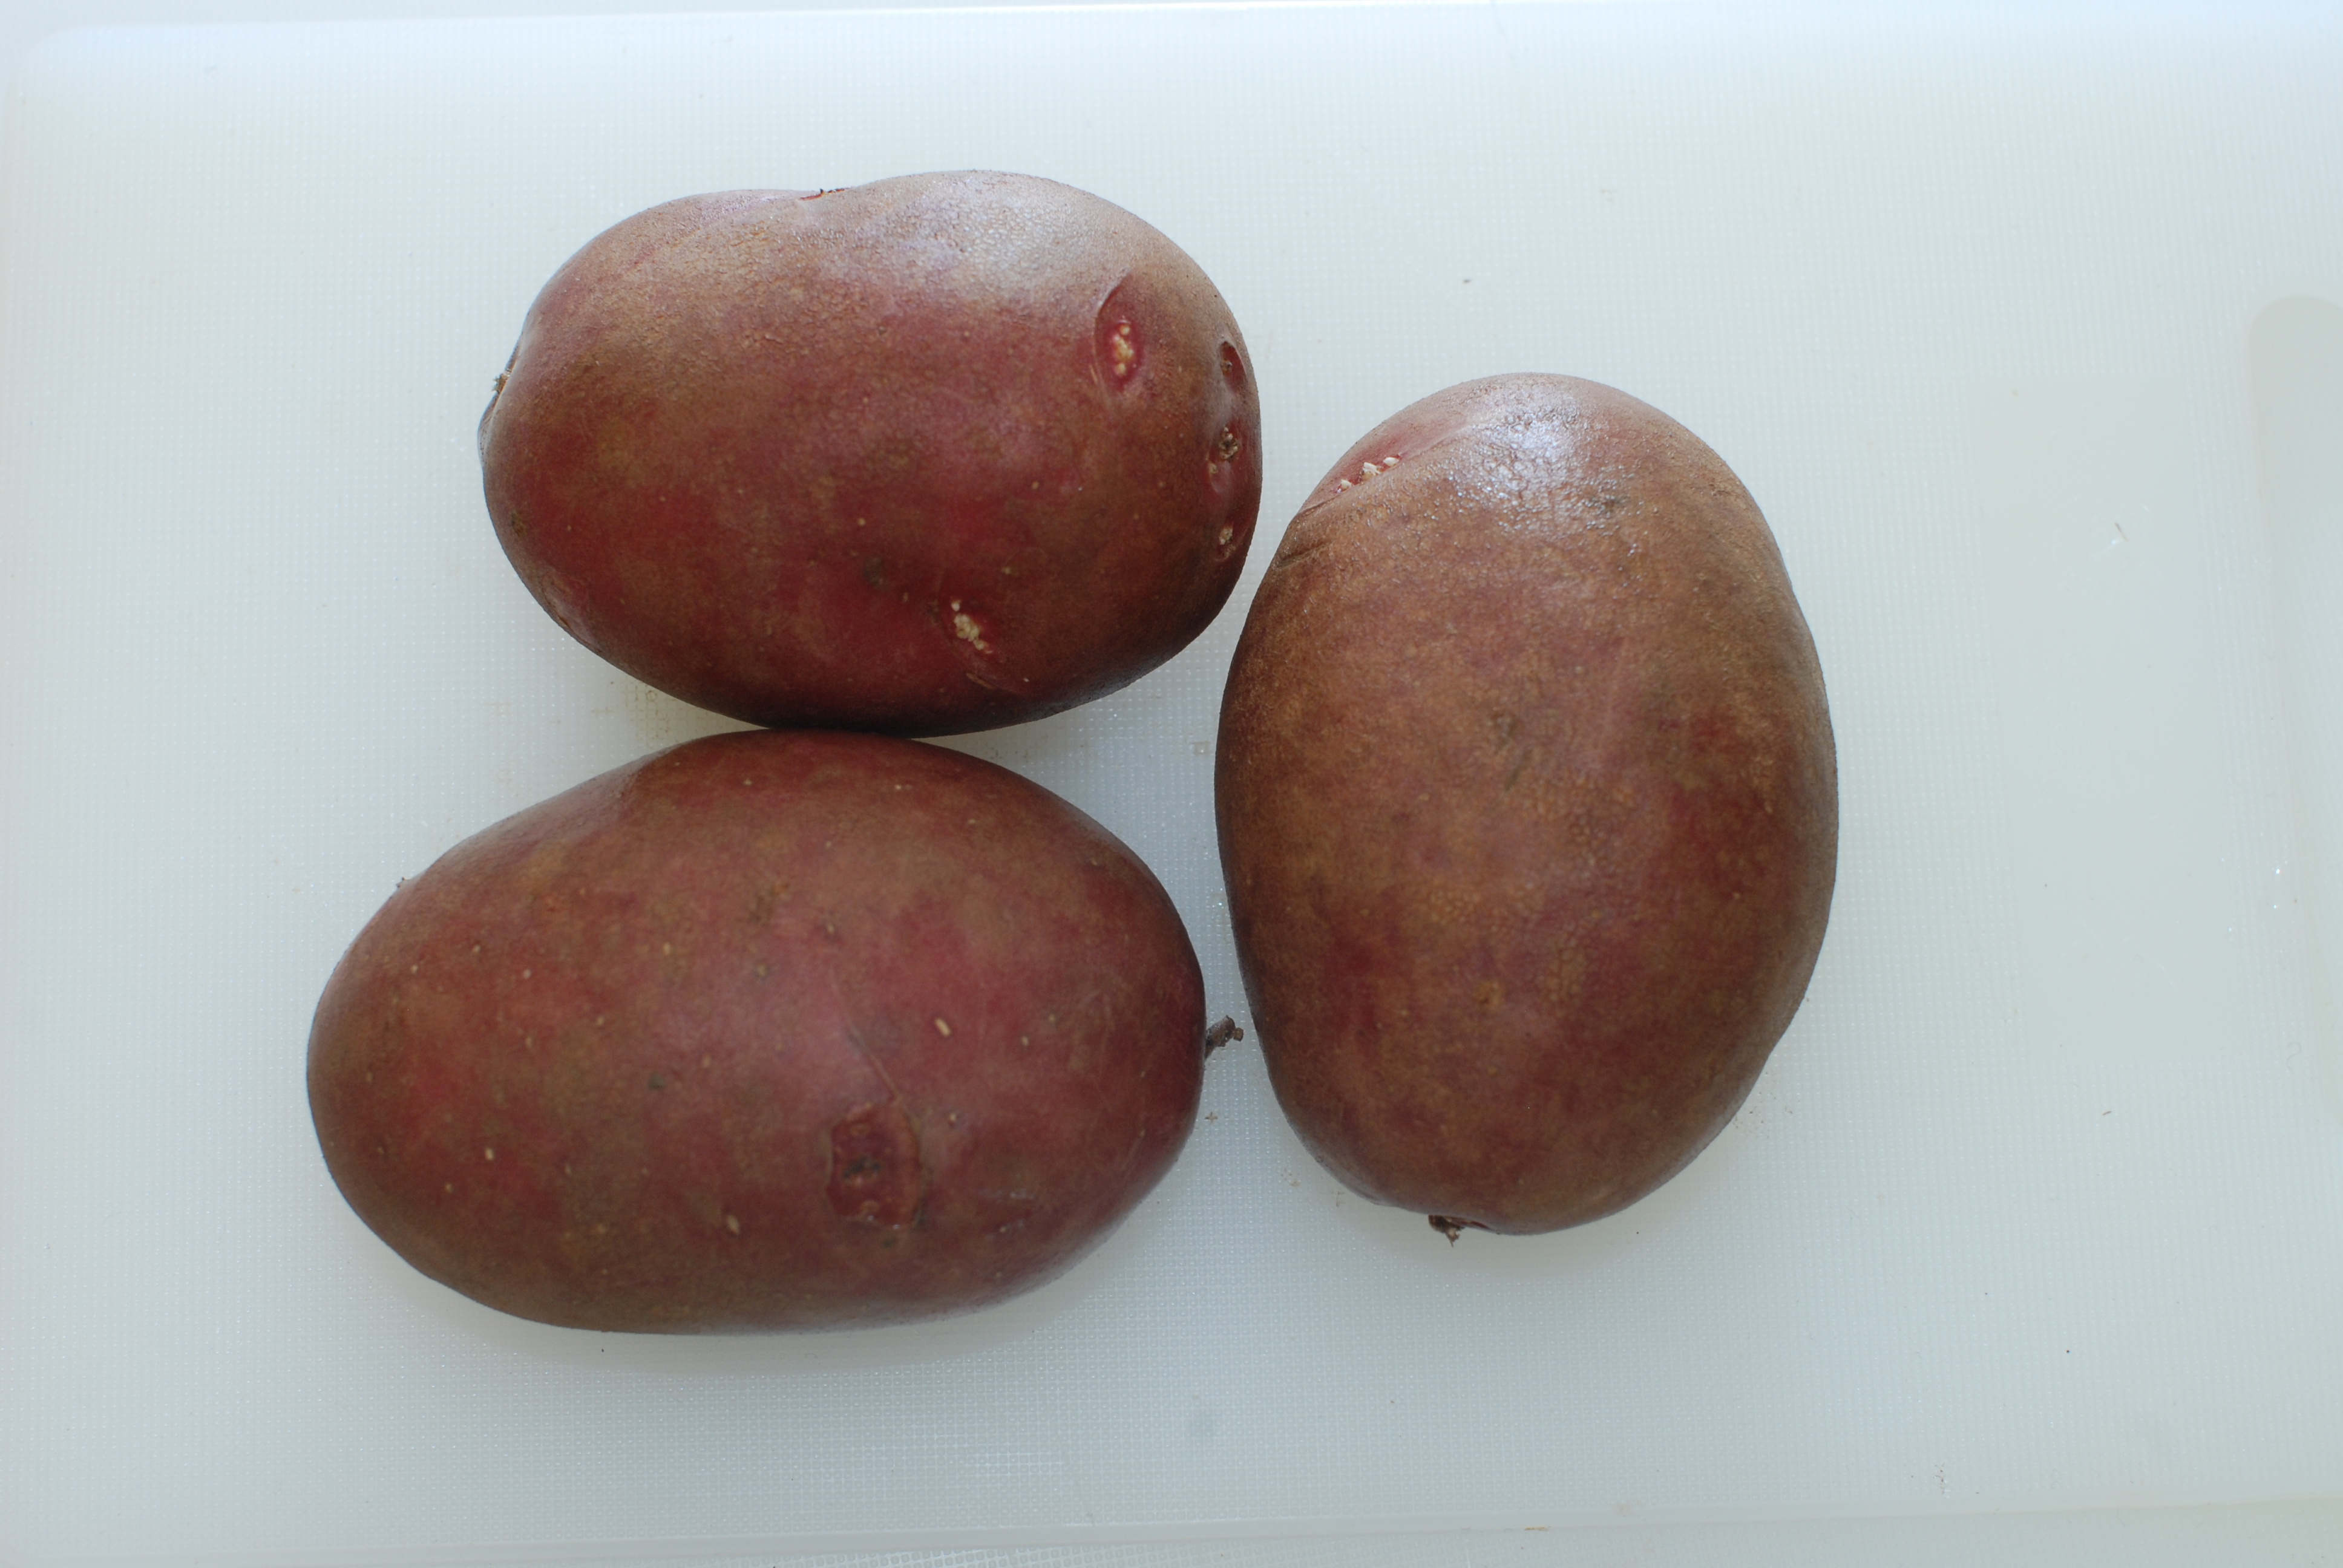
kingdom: Plantae
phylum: Tracheophyta
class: Magnoliopsida
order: Solanales
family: Solanaceae
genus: Solanum
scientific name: Solanum tuberosum
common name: Potato
